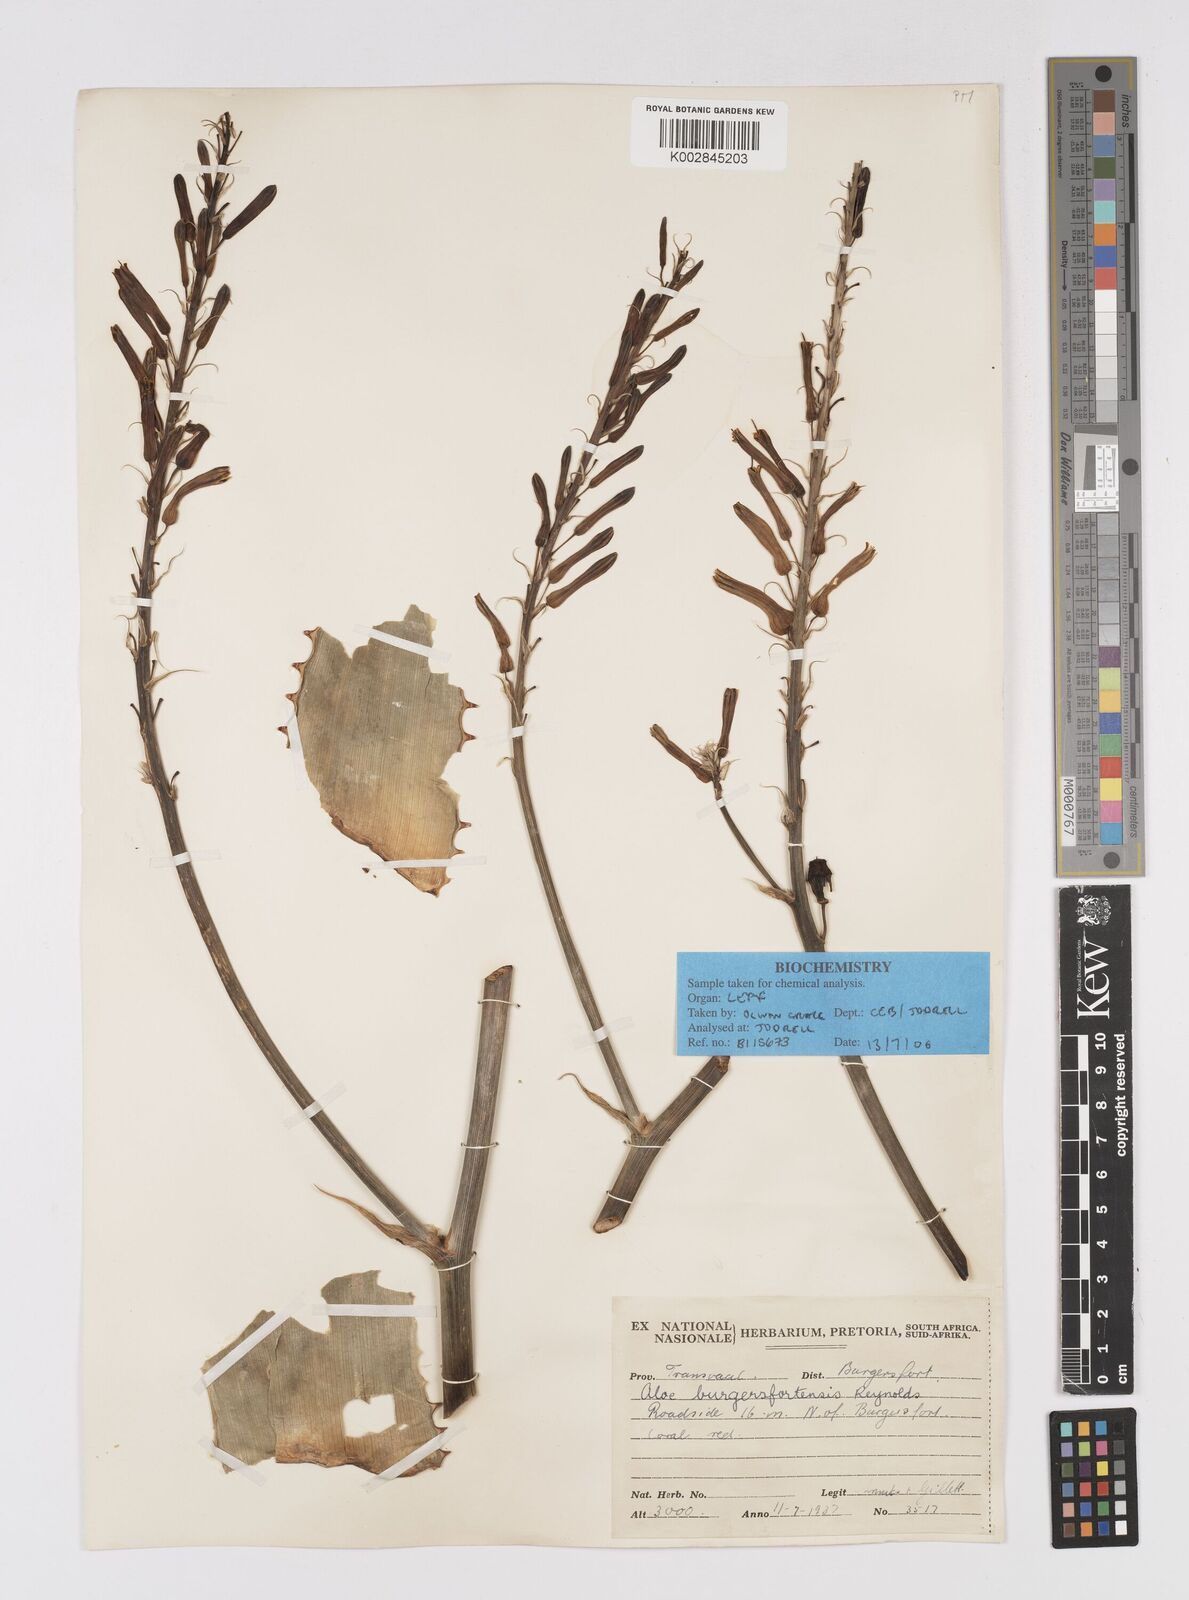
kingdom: Plantae
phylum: Tracheophyta
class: Liliopsida
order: Asparagales
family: Asphodelaceae
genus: Aloe
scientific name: Aloe burgersfortensis
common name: Burgersfort aloe
